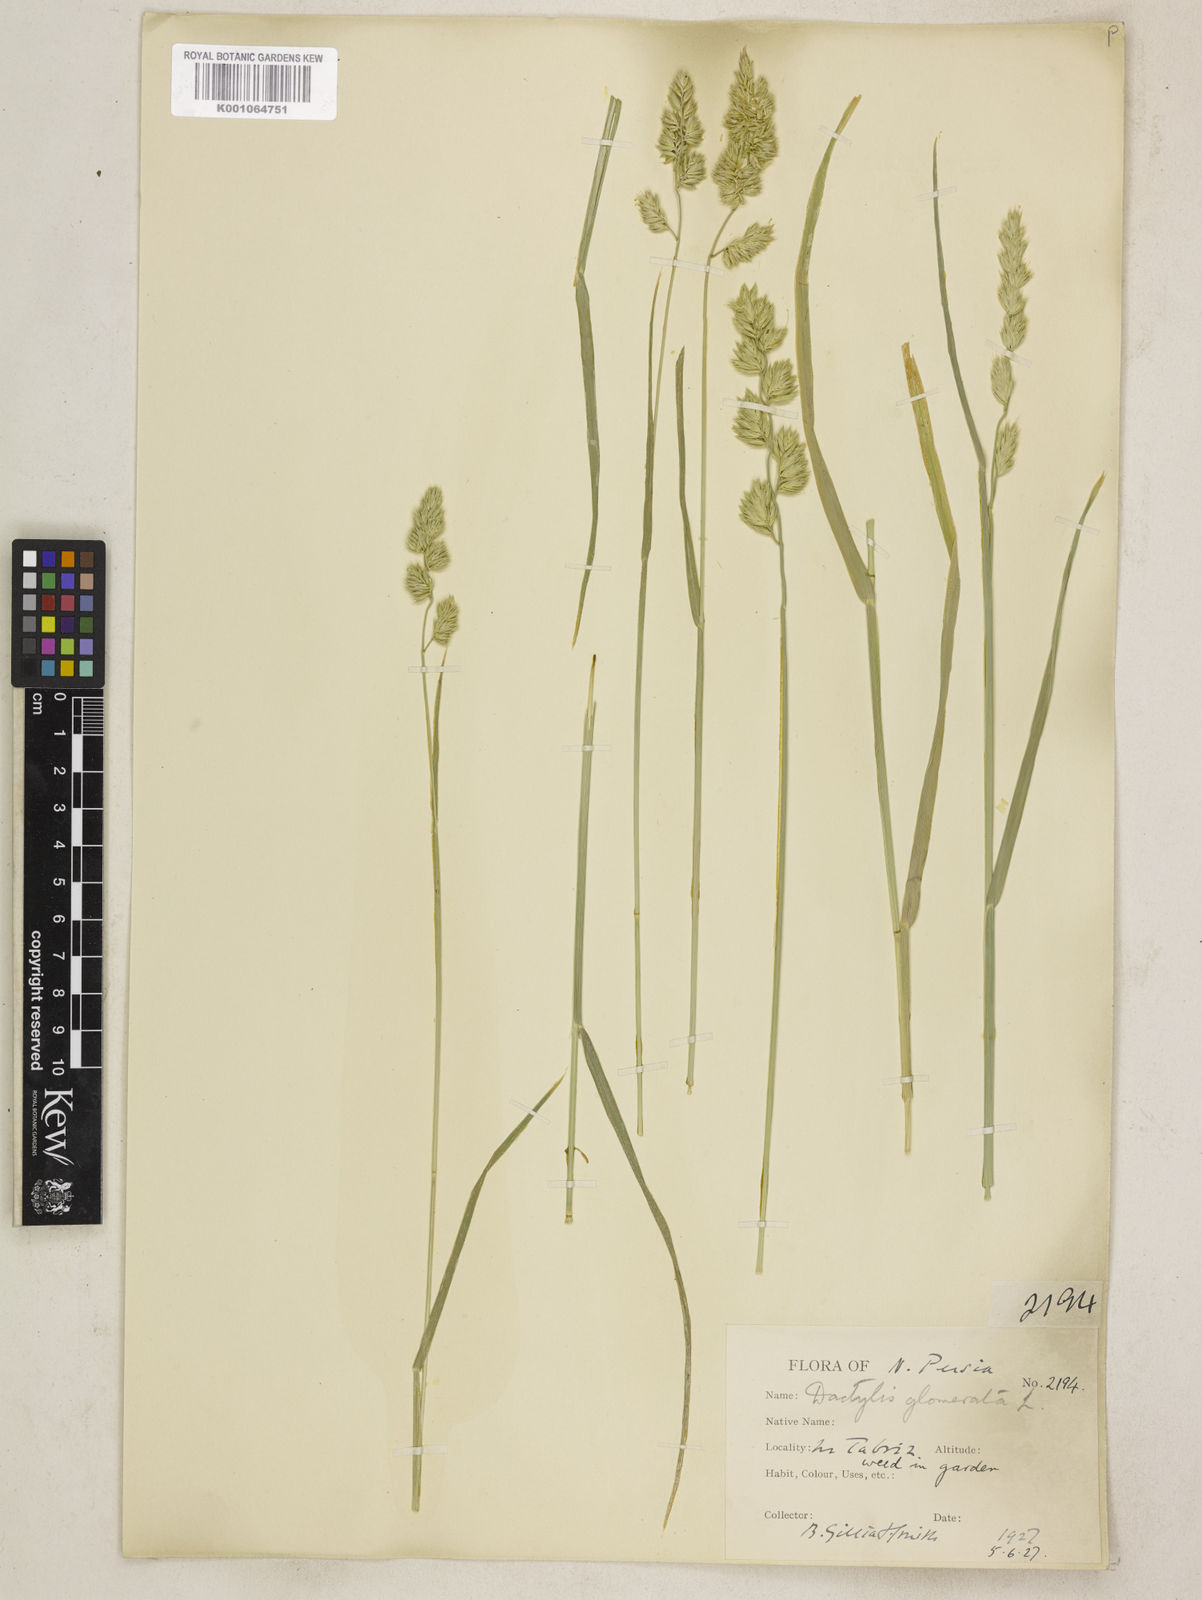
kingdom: Plantae
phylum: Tracheophyta
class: Liliopsida
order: Poales
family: Poaceae
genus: Dactylis
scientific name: Dactylis glomerata
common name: Orchardgrass
